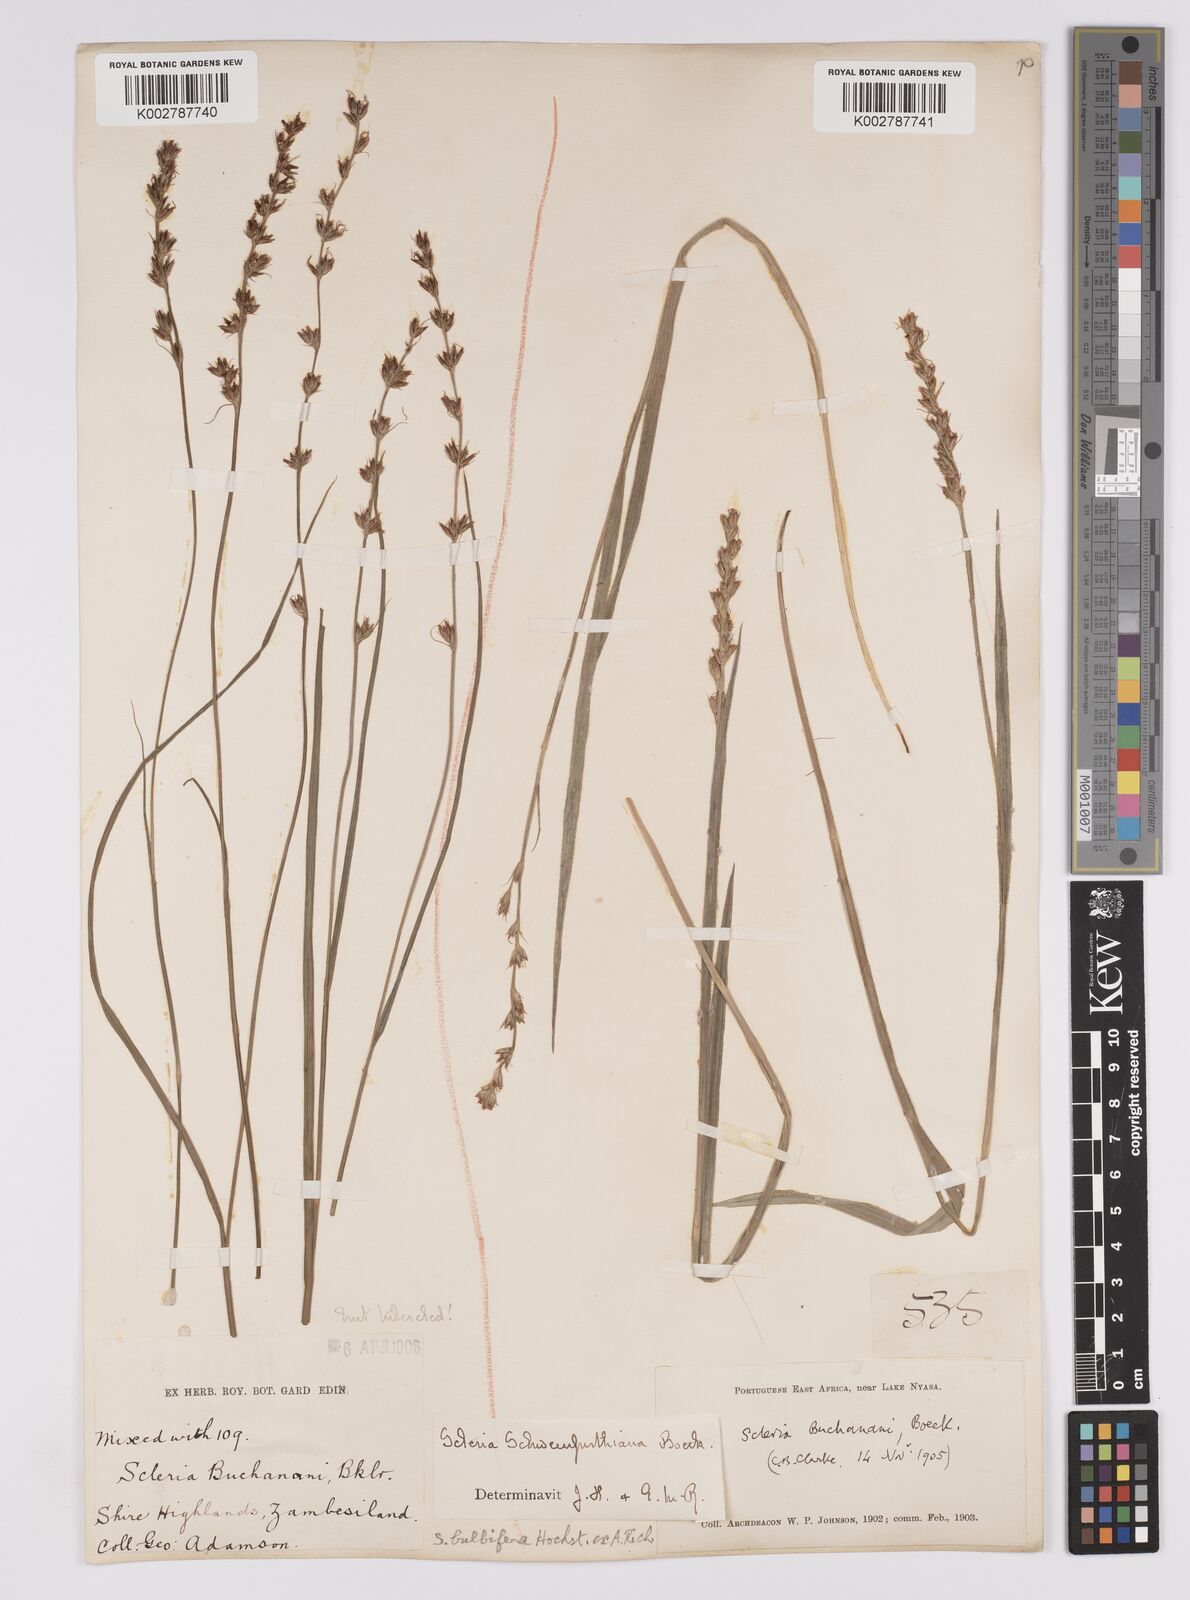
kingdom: Plantae
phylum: Tracheophyta
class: Liliopsida
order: Poales
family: Cyperaceae
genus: Scleria
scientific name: Scleria bulbifera
